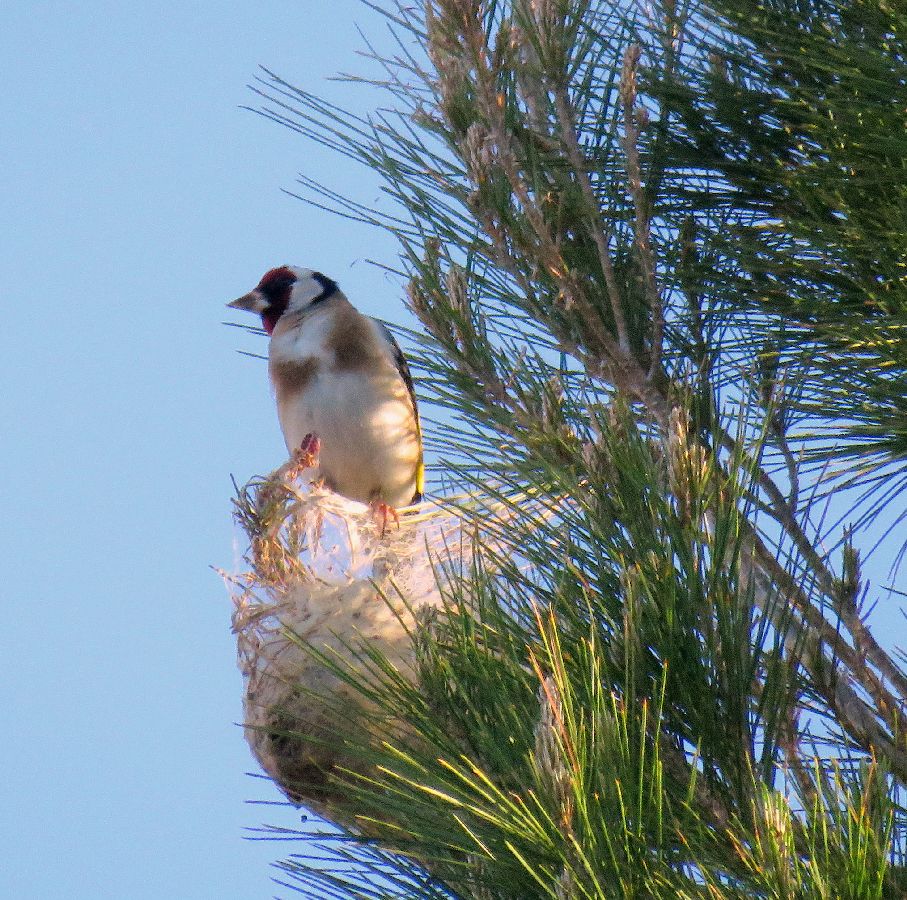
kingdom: Animalia
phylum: Chordata
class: Aves
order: Passeriformes
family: Fringillidae
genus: Carduelis
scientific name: Carduelis carduelis
